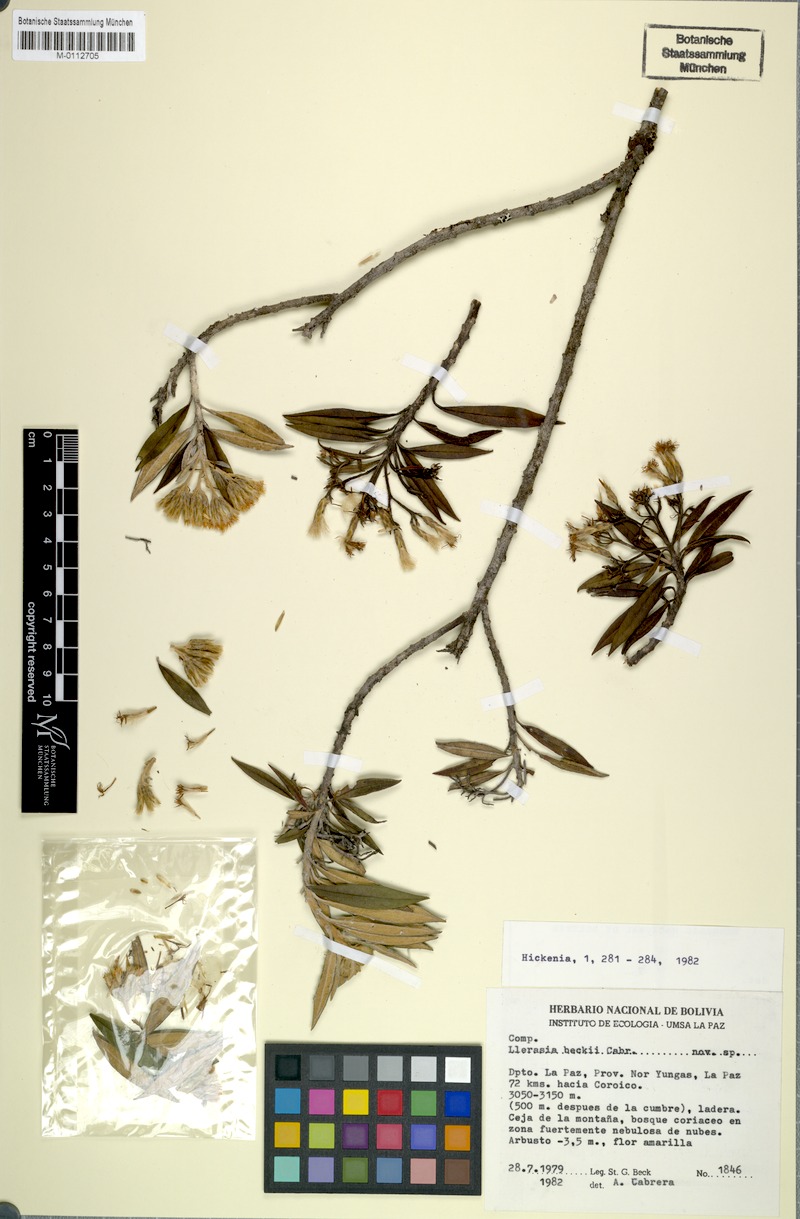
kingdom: Plantae
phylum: Tracheophyta
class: Magnoliopsida
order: Asterales
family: Asteraceae
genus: Llerasia
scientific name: Llerasia beckii
